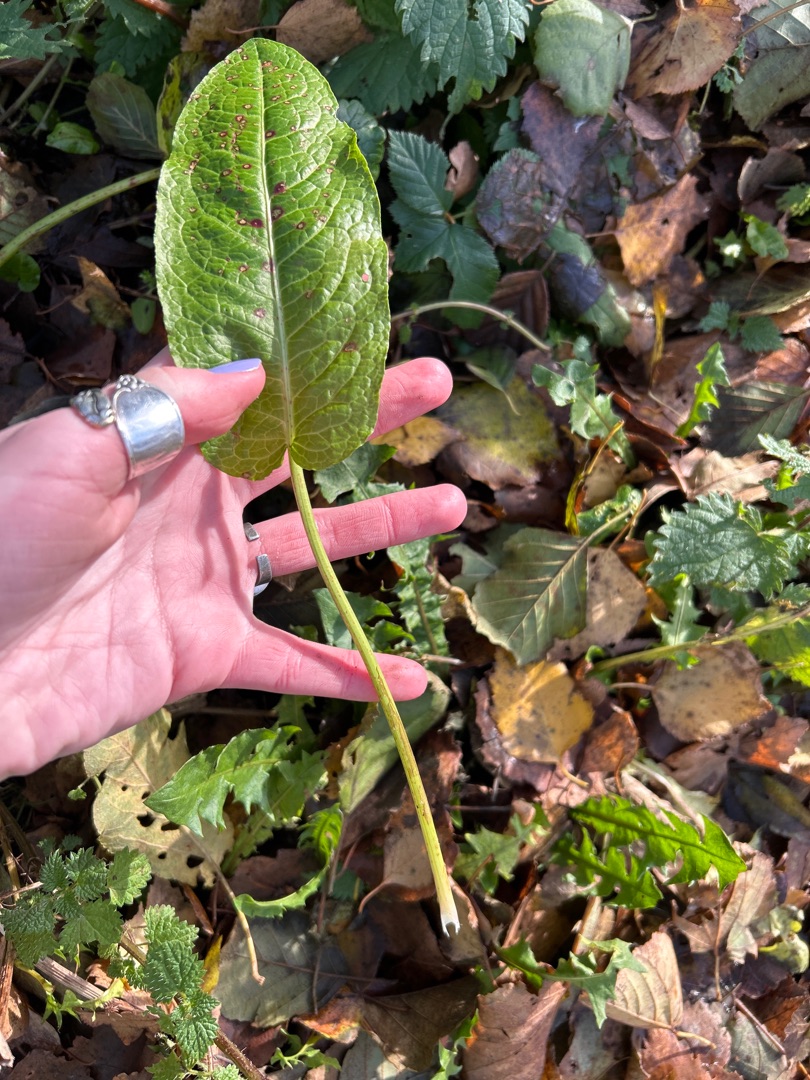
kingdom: Plantae
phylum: Tracheophyta
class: Magnoliopsida
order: Caryophyllales
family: Polygonaceae
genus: Rumex
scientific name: Rumex obtusifolius
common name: Butbladet skræppe
